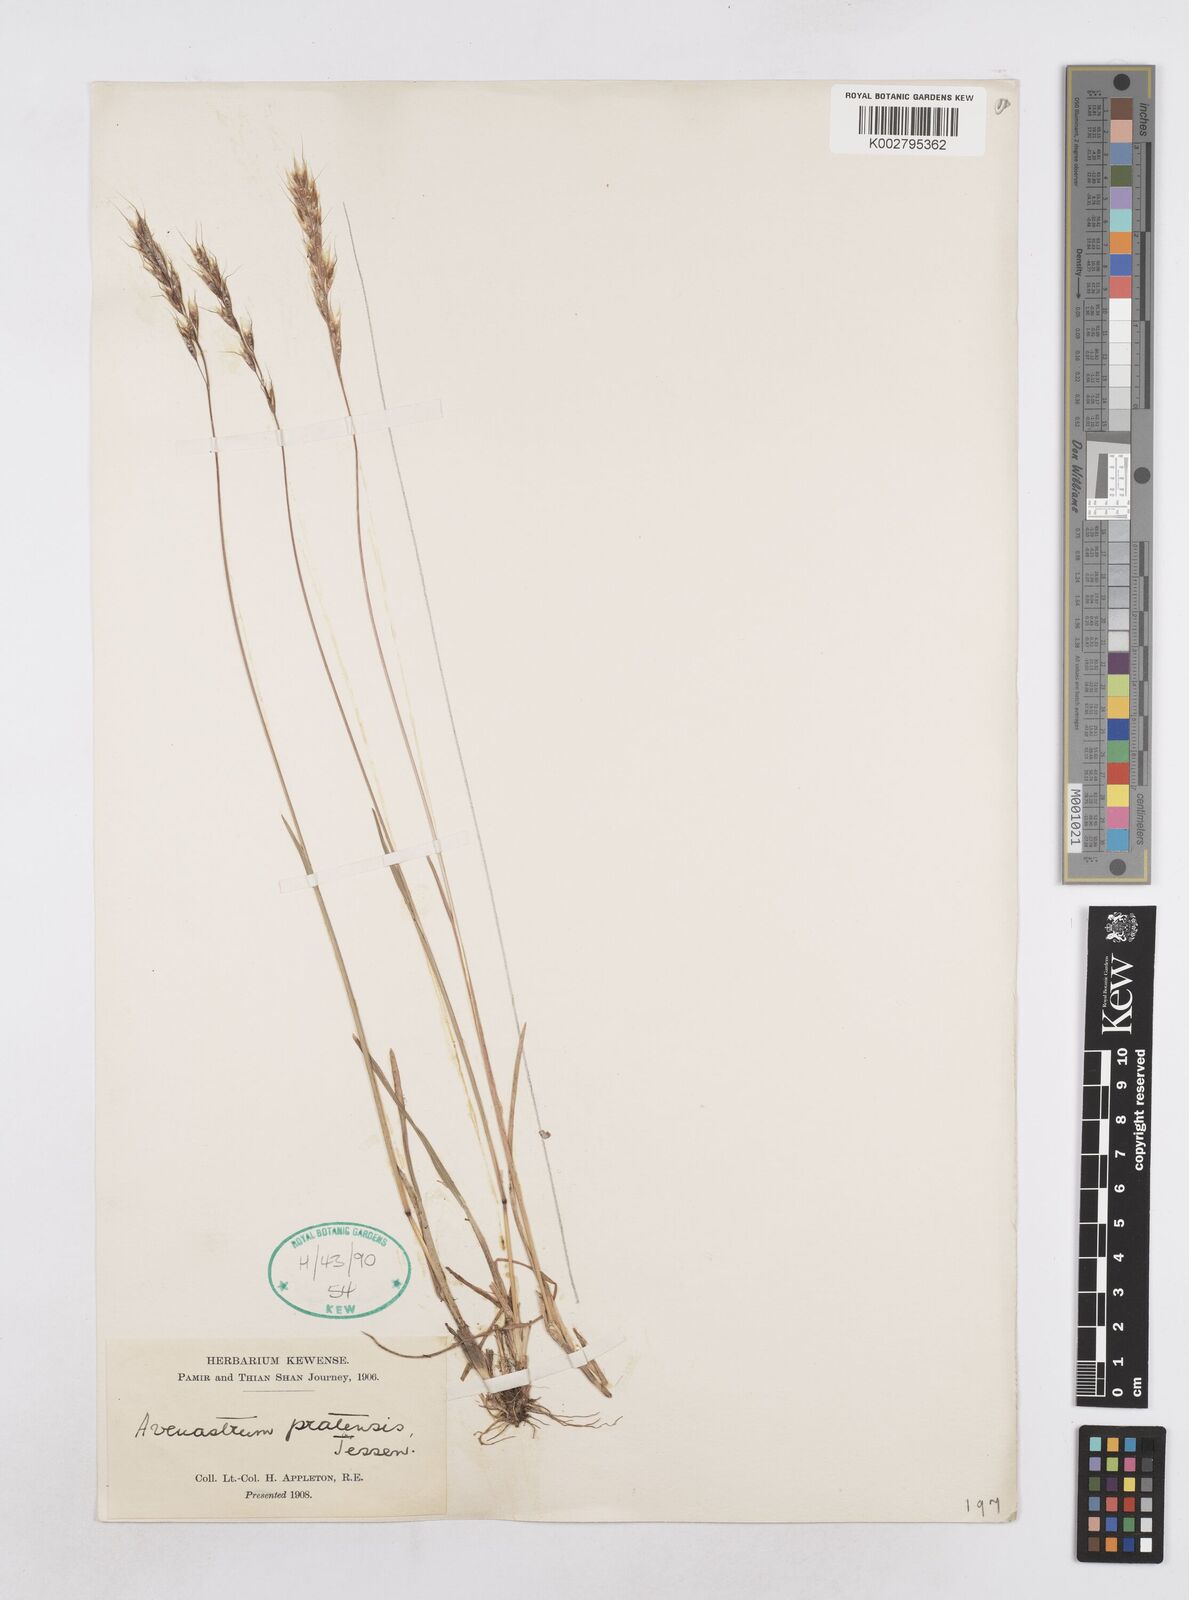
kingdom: Plantae
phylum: Tracheophyta
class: Liliopsida
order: Poales
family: Poaceae
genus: Helictotrichon
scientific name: Helictotrichon
